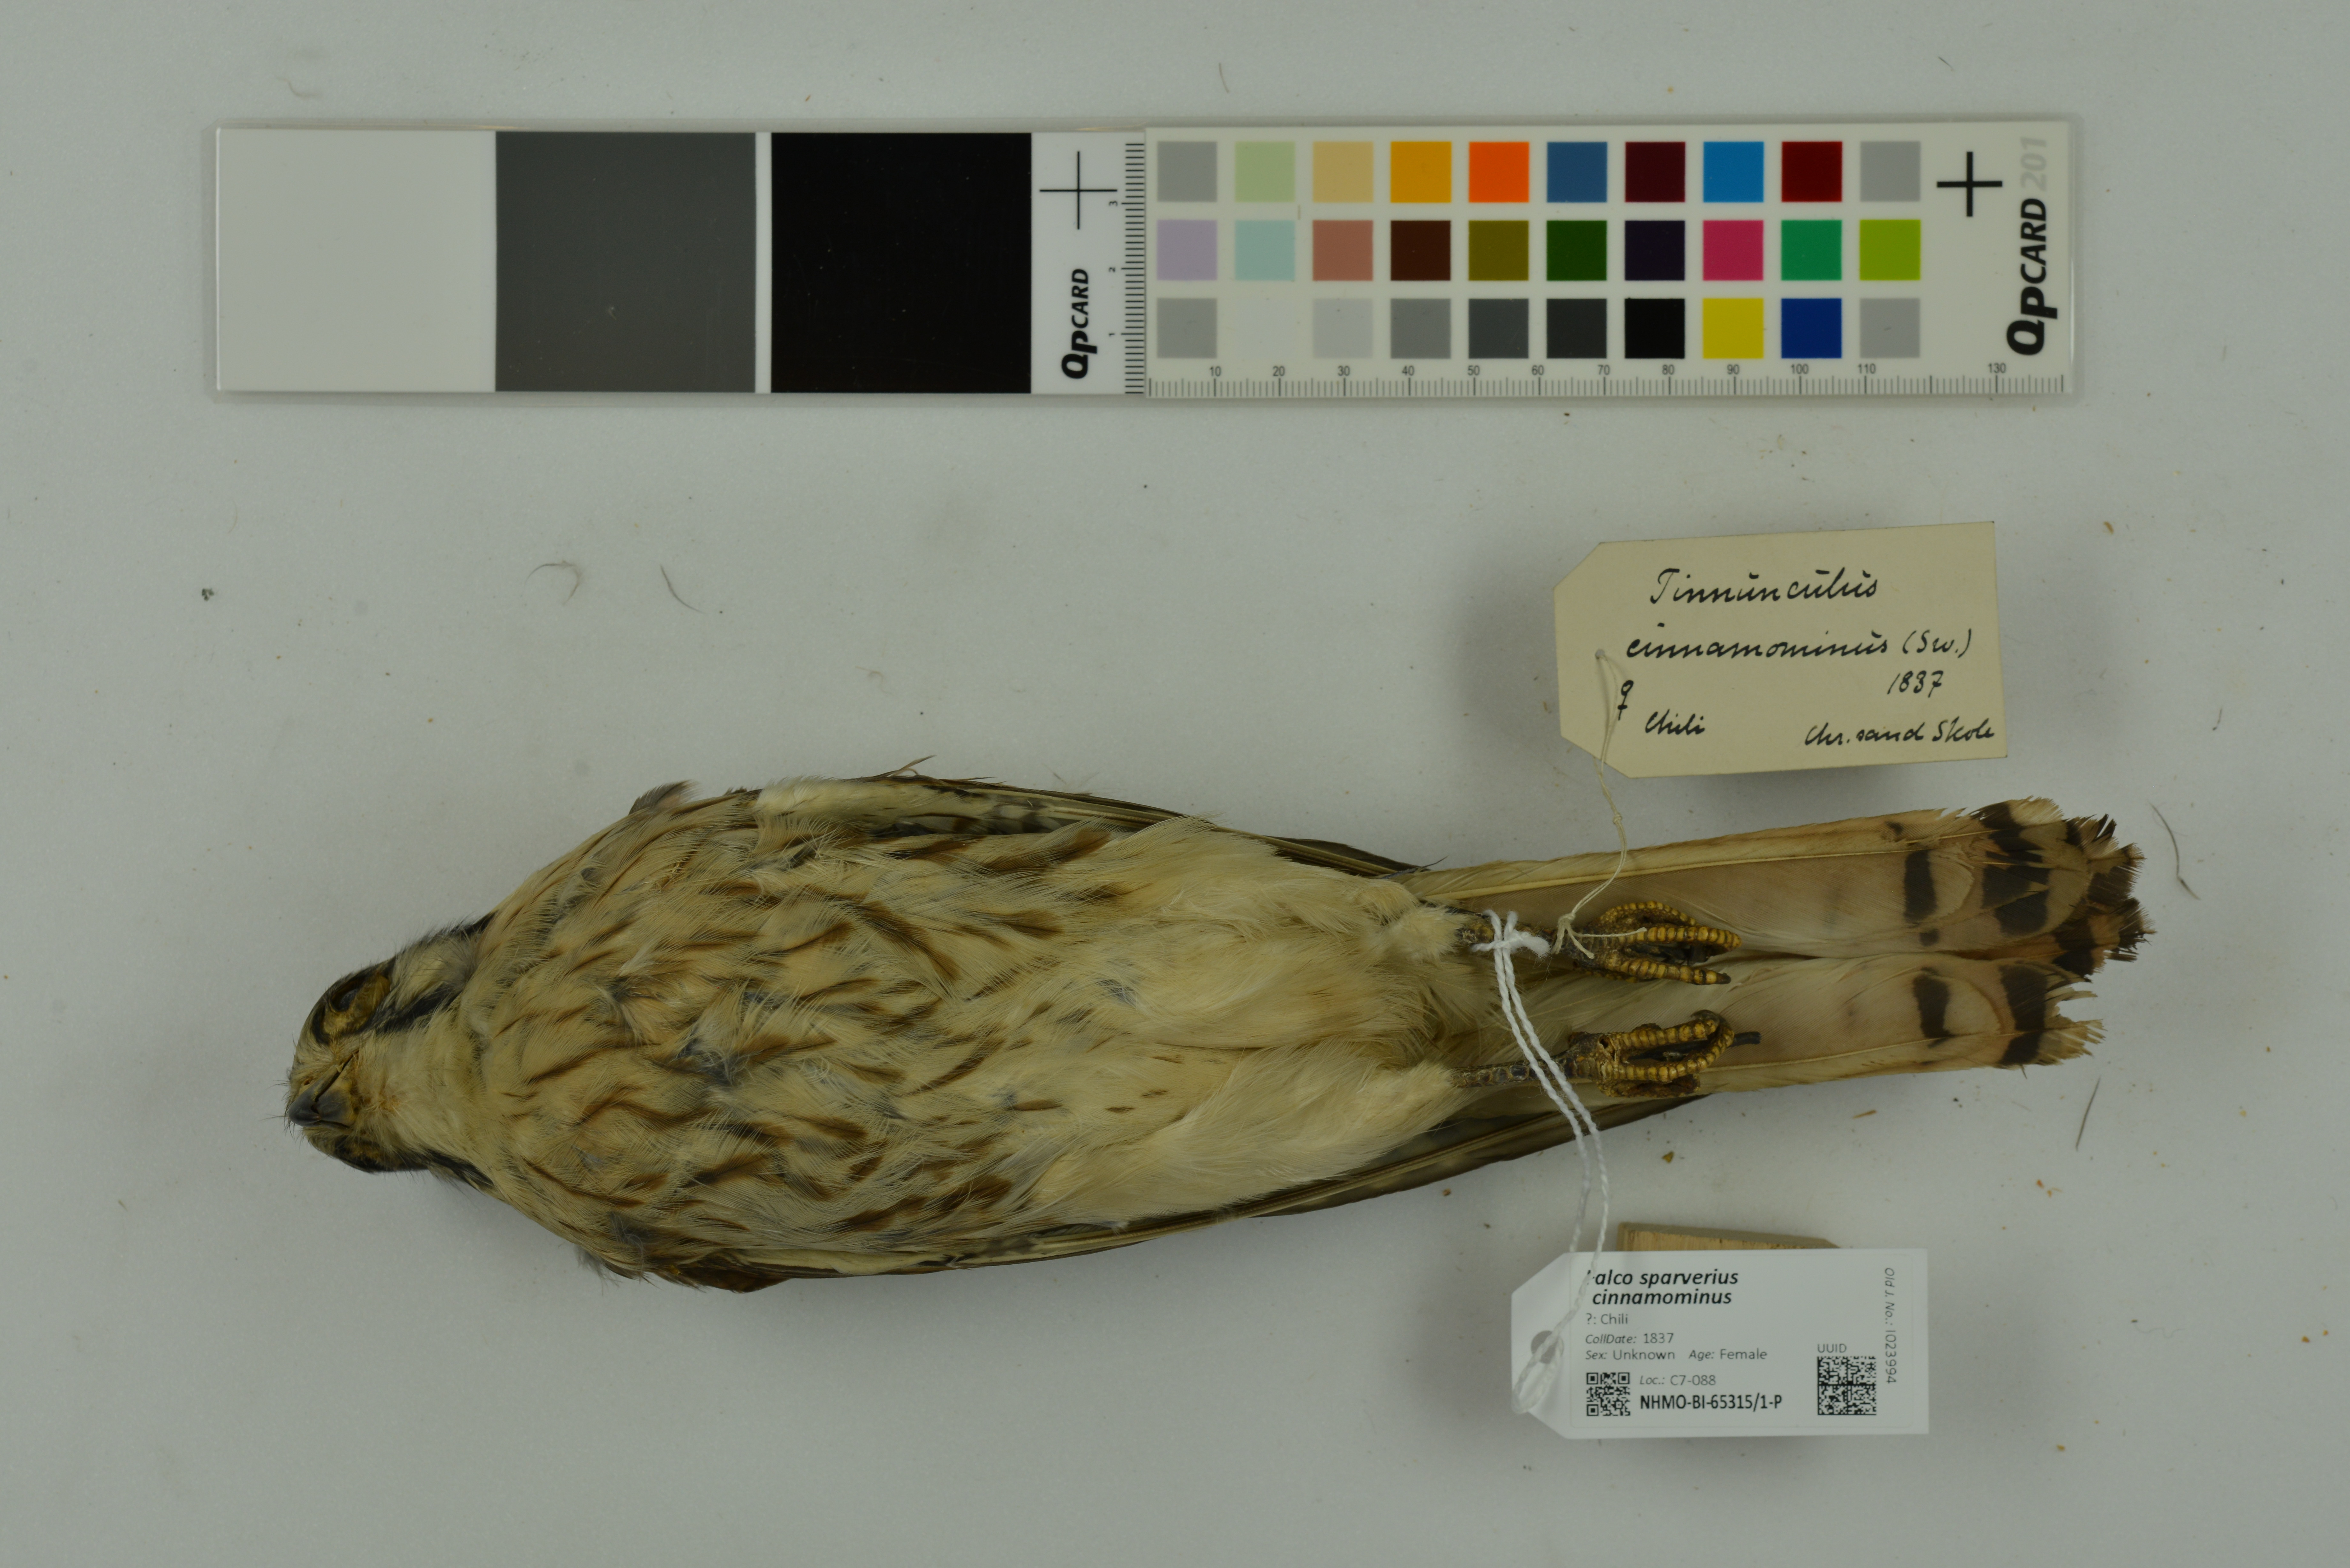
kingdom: Animalia
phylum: Chordata
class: Aves
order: Falconiformes
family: Falconidae
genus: Falco
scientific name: Falco sparverius
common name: American kestrel
